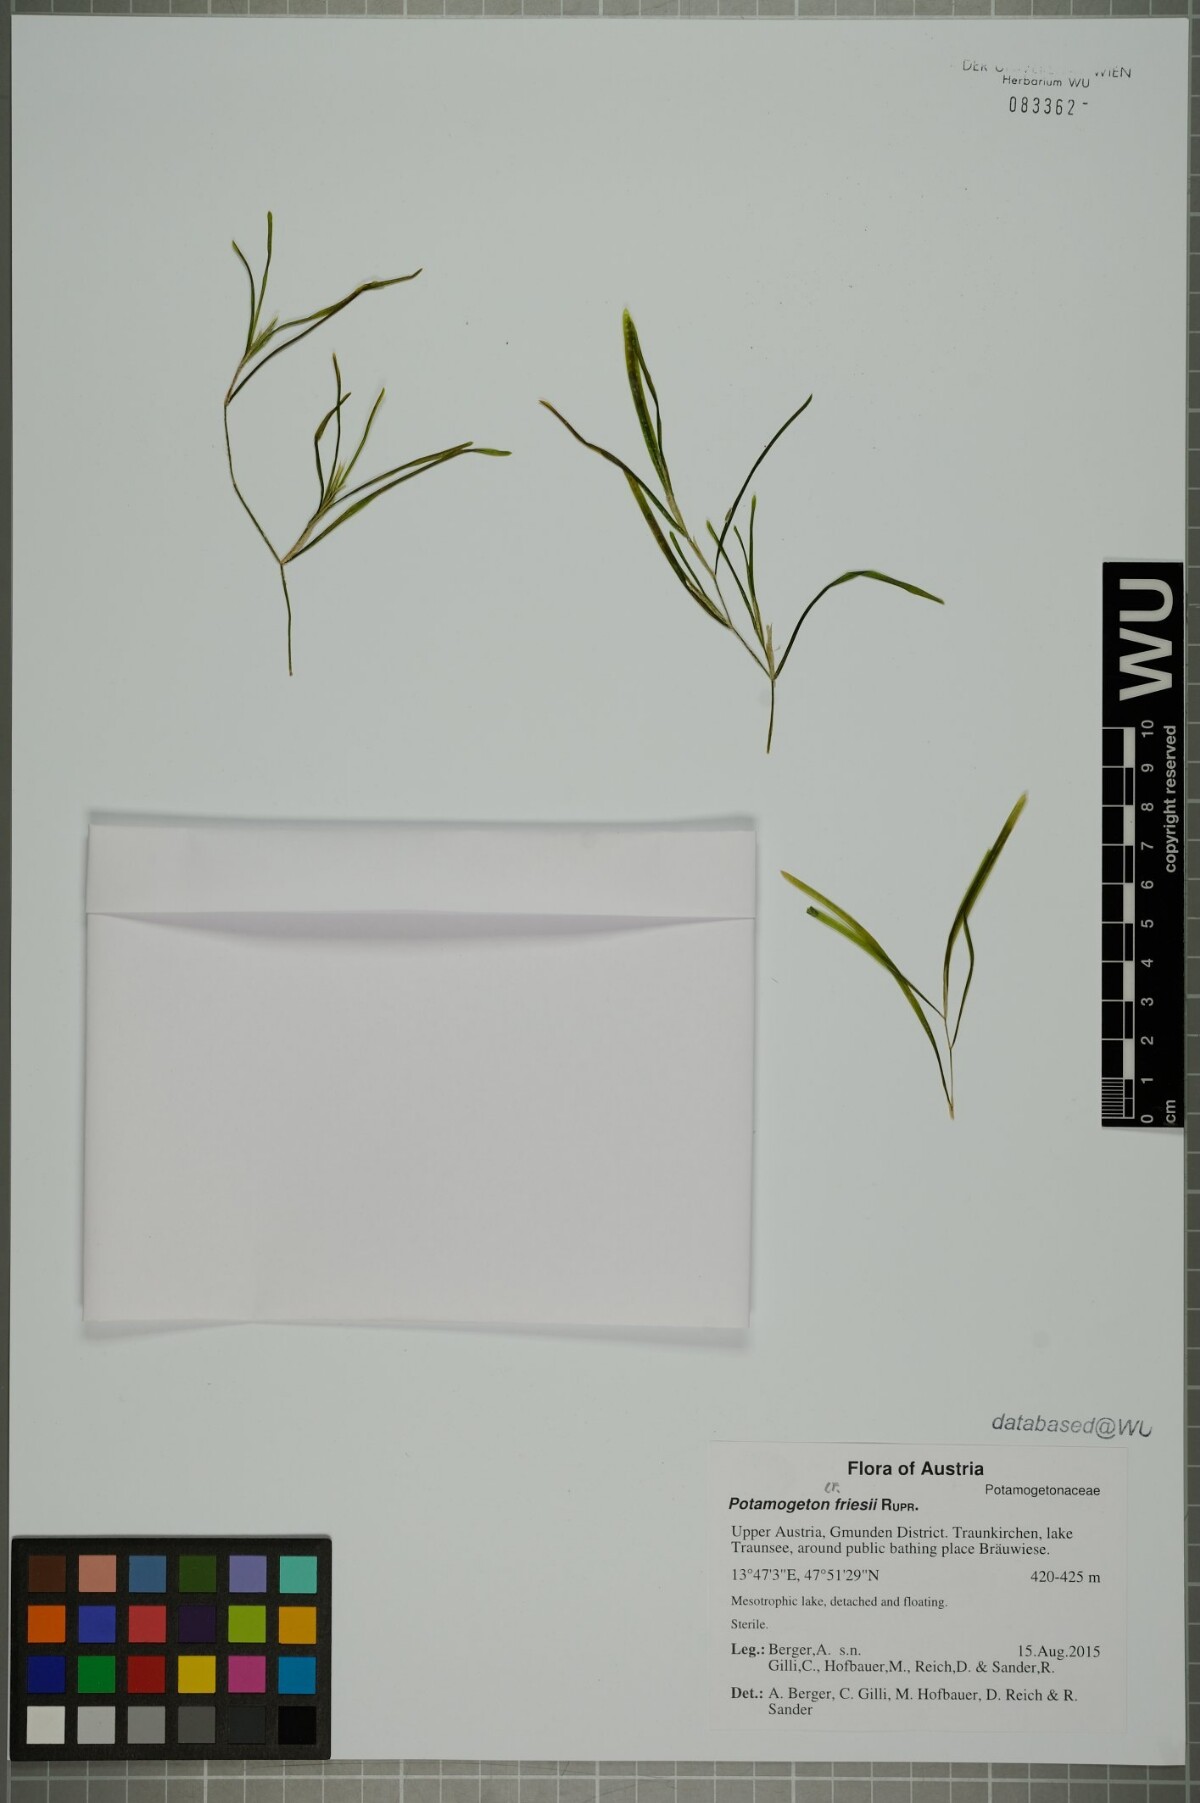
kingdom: Plantae
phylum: Tracheophyta
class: Liliopsida
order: Alismatales
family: Potamogetonaceae
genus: Potamogeton
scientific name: Potamogeton friesii
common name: Flat-stalked pondweed
